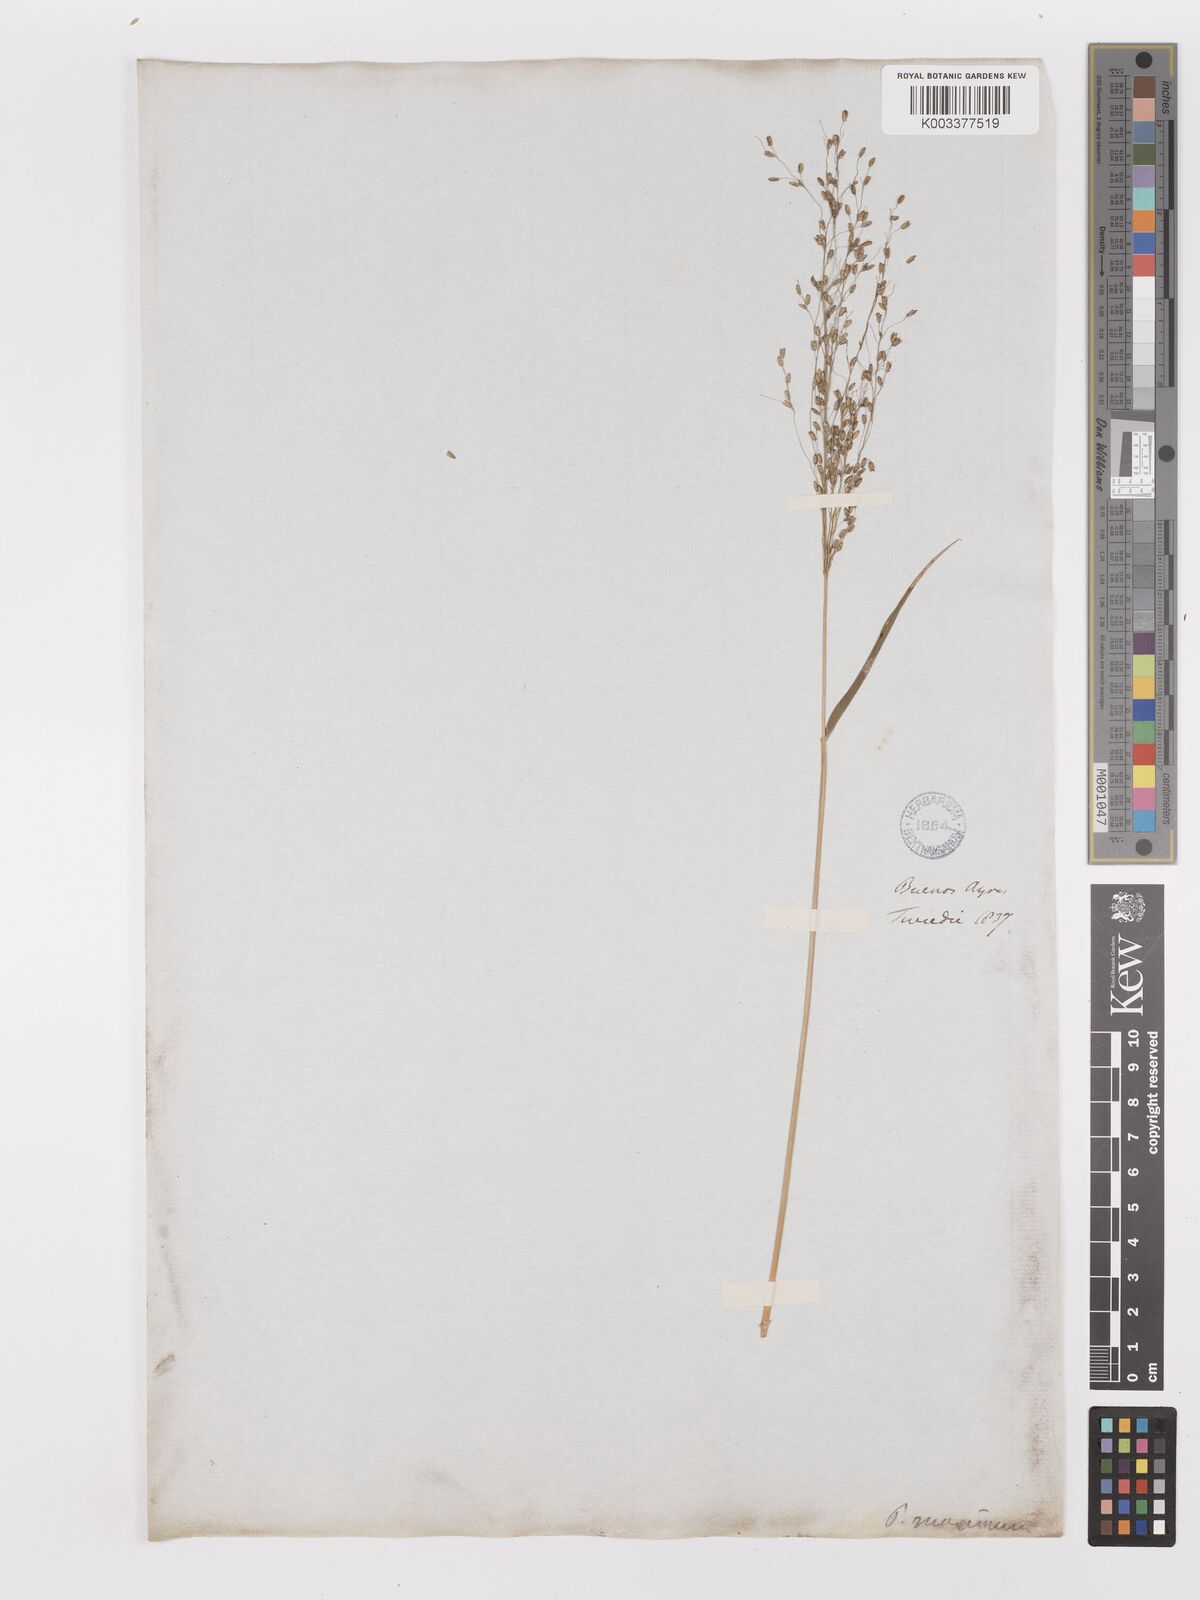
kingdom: Plantae
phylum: Tracheophyta
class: Liliopsida
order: Poales
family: Poaceae
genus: Megathyrsus
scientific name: Megathyrsus maximus
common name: Guineagrass
